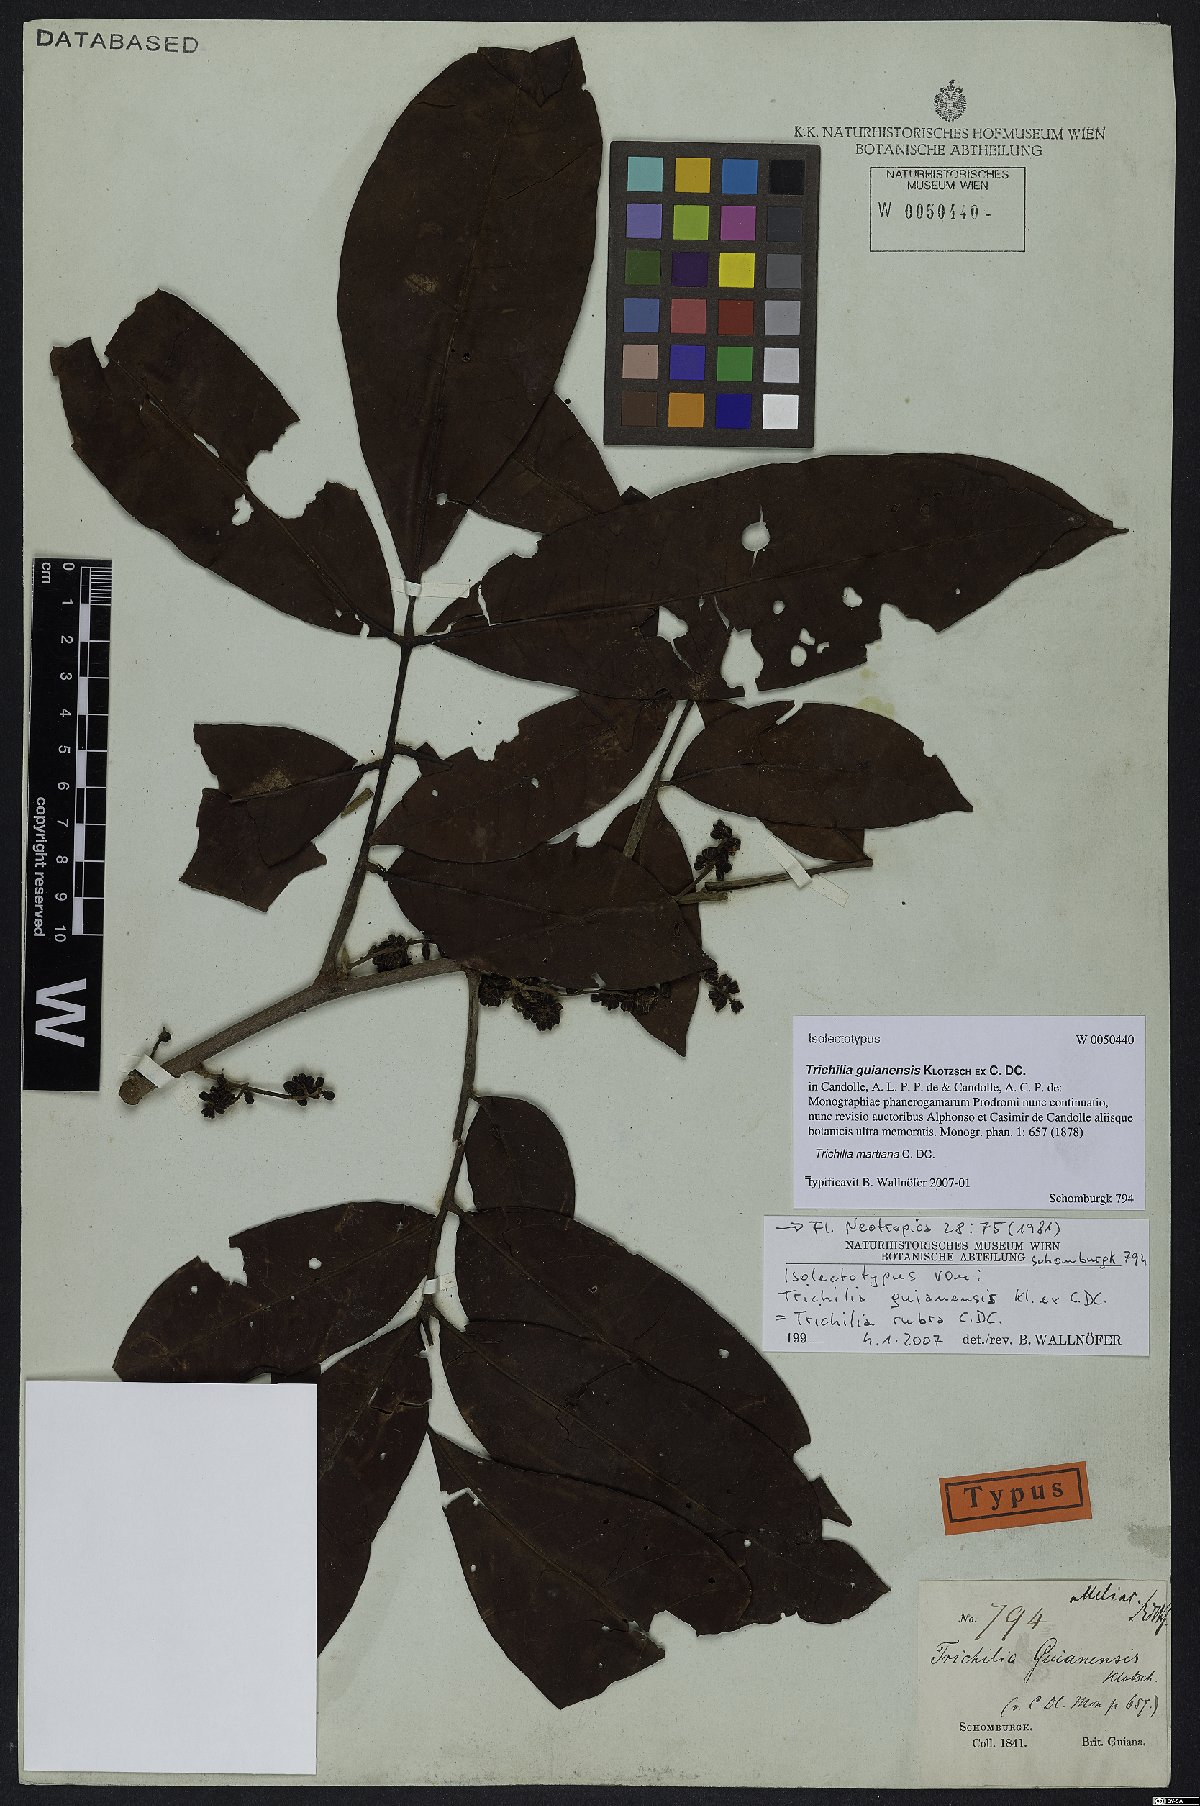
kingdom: Plantae
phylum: Tracheophyta
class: Magnoliopsida
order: Sapindales
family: Meliaceae
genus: Trichilia
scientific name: Trichilia martiana
